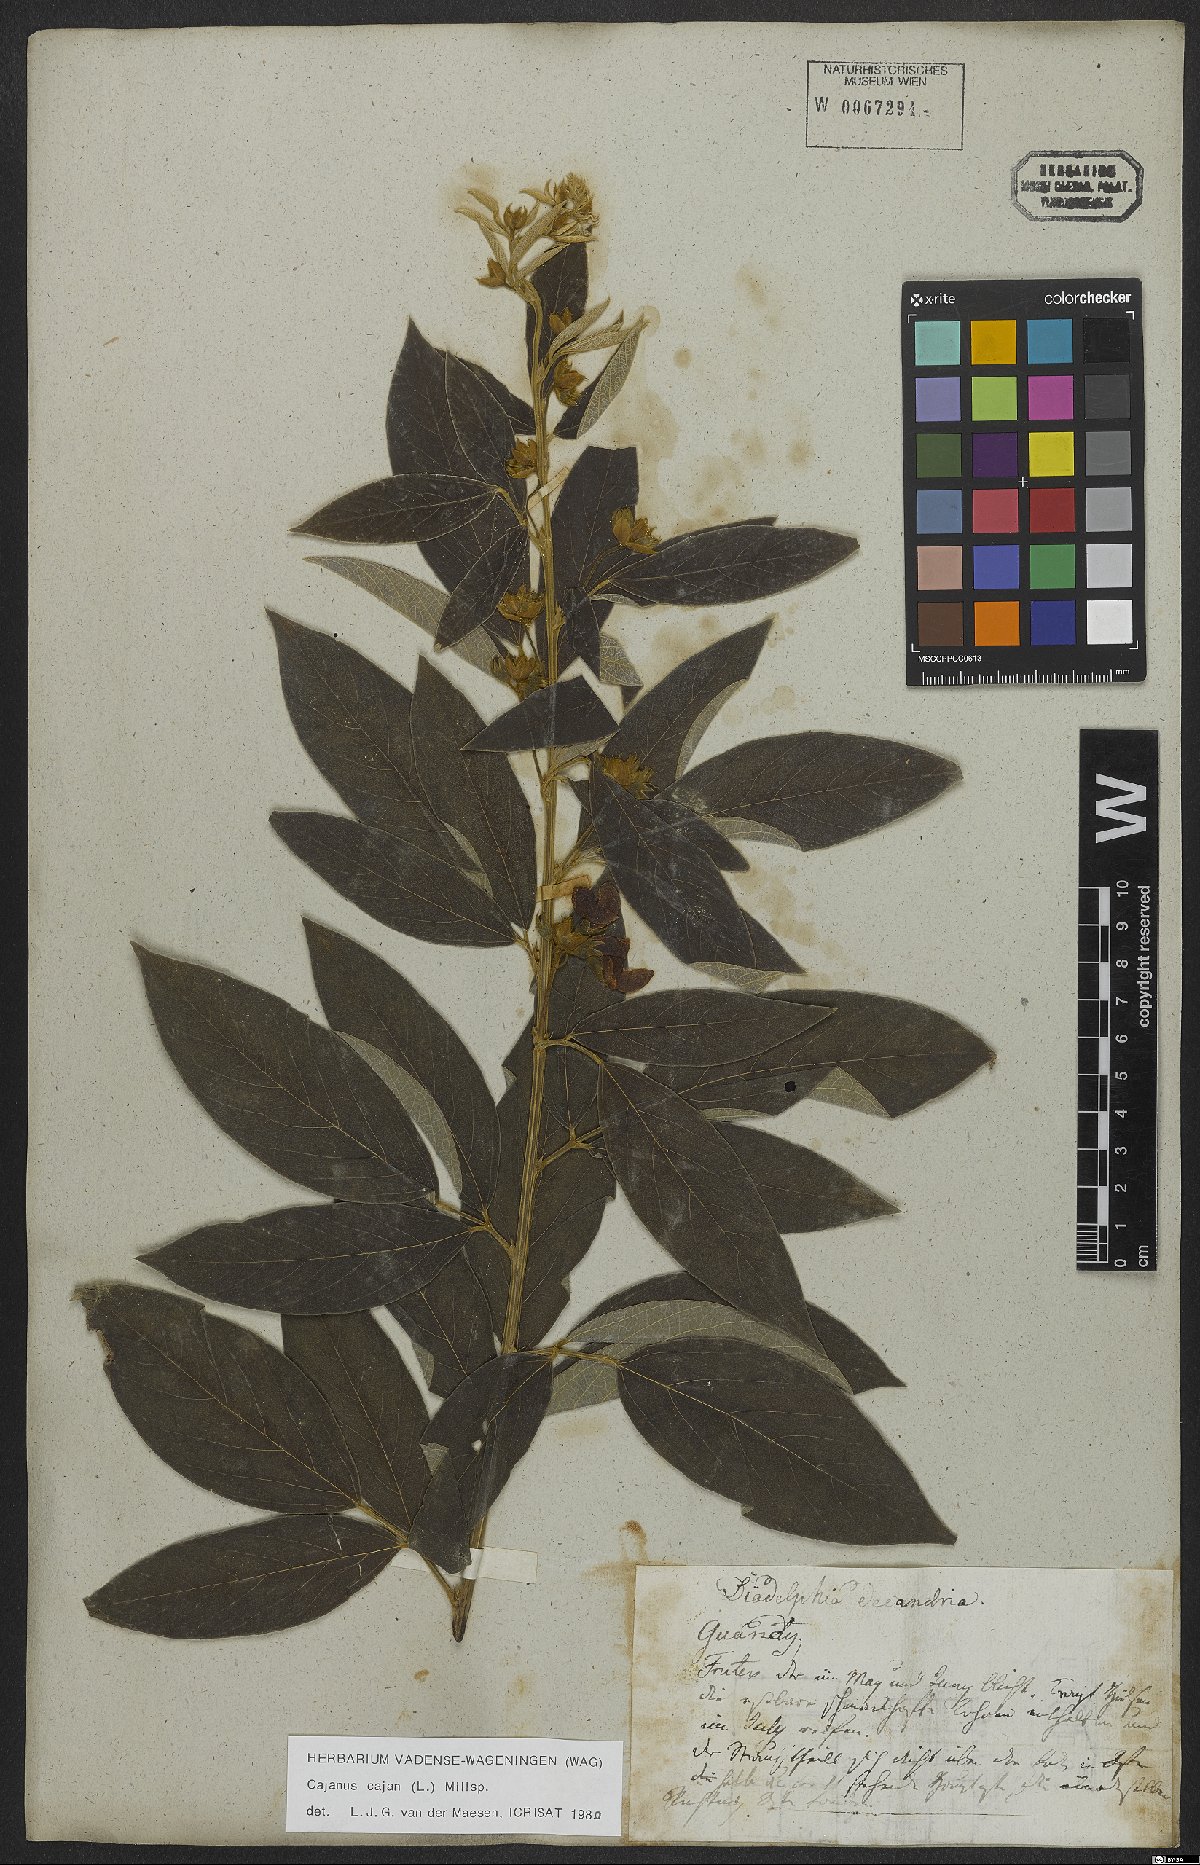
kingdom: Plantae
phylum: Tracheophyta
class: Magnoliopsida
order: Fabales
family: Fabaceae
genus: Cajanus
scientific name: Cajanus cajan
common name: Pigeonpea
